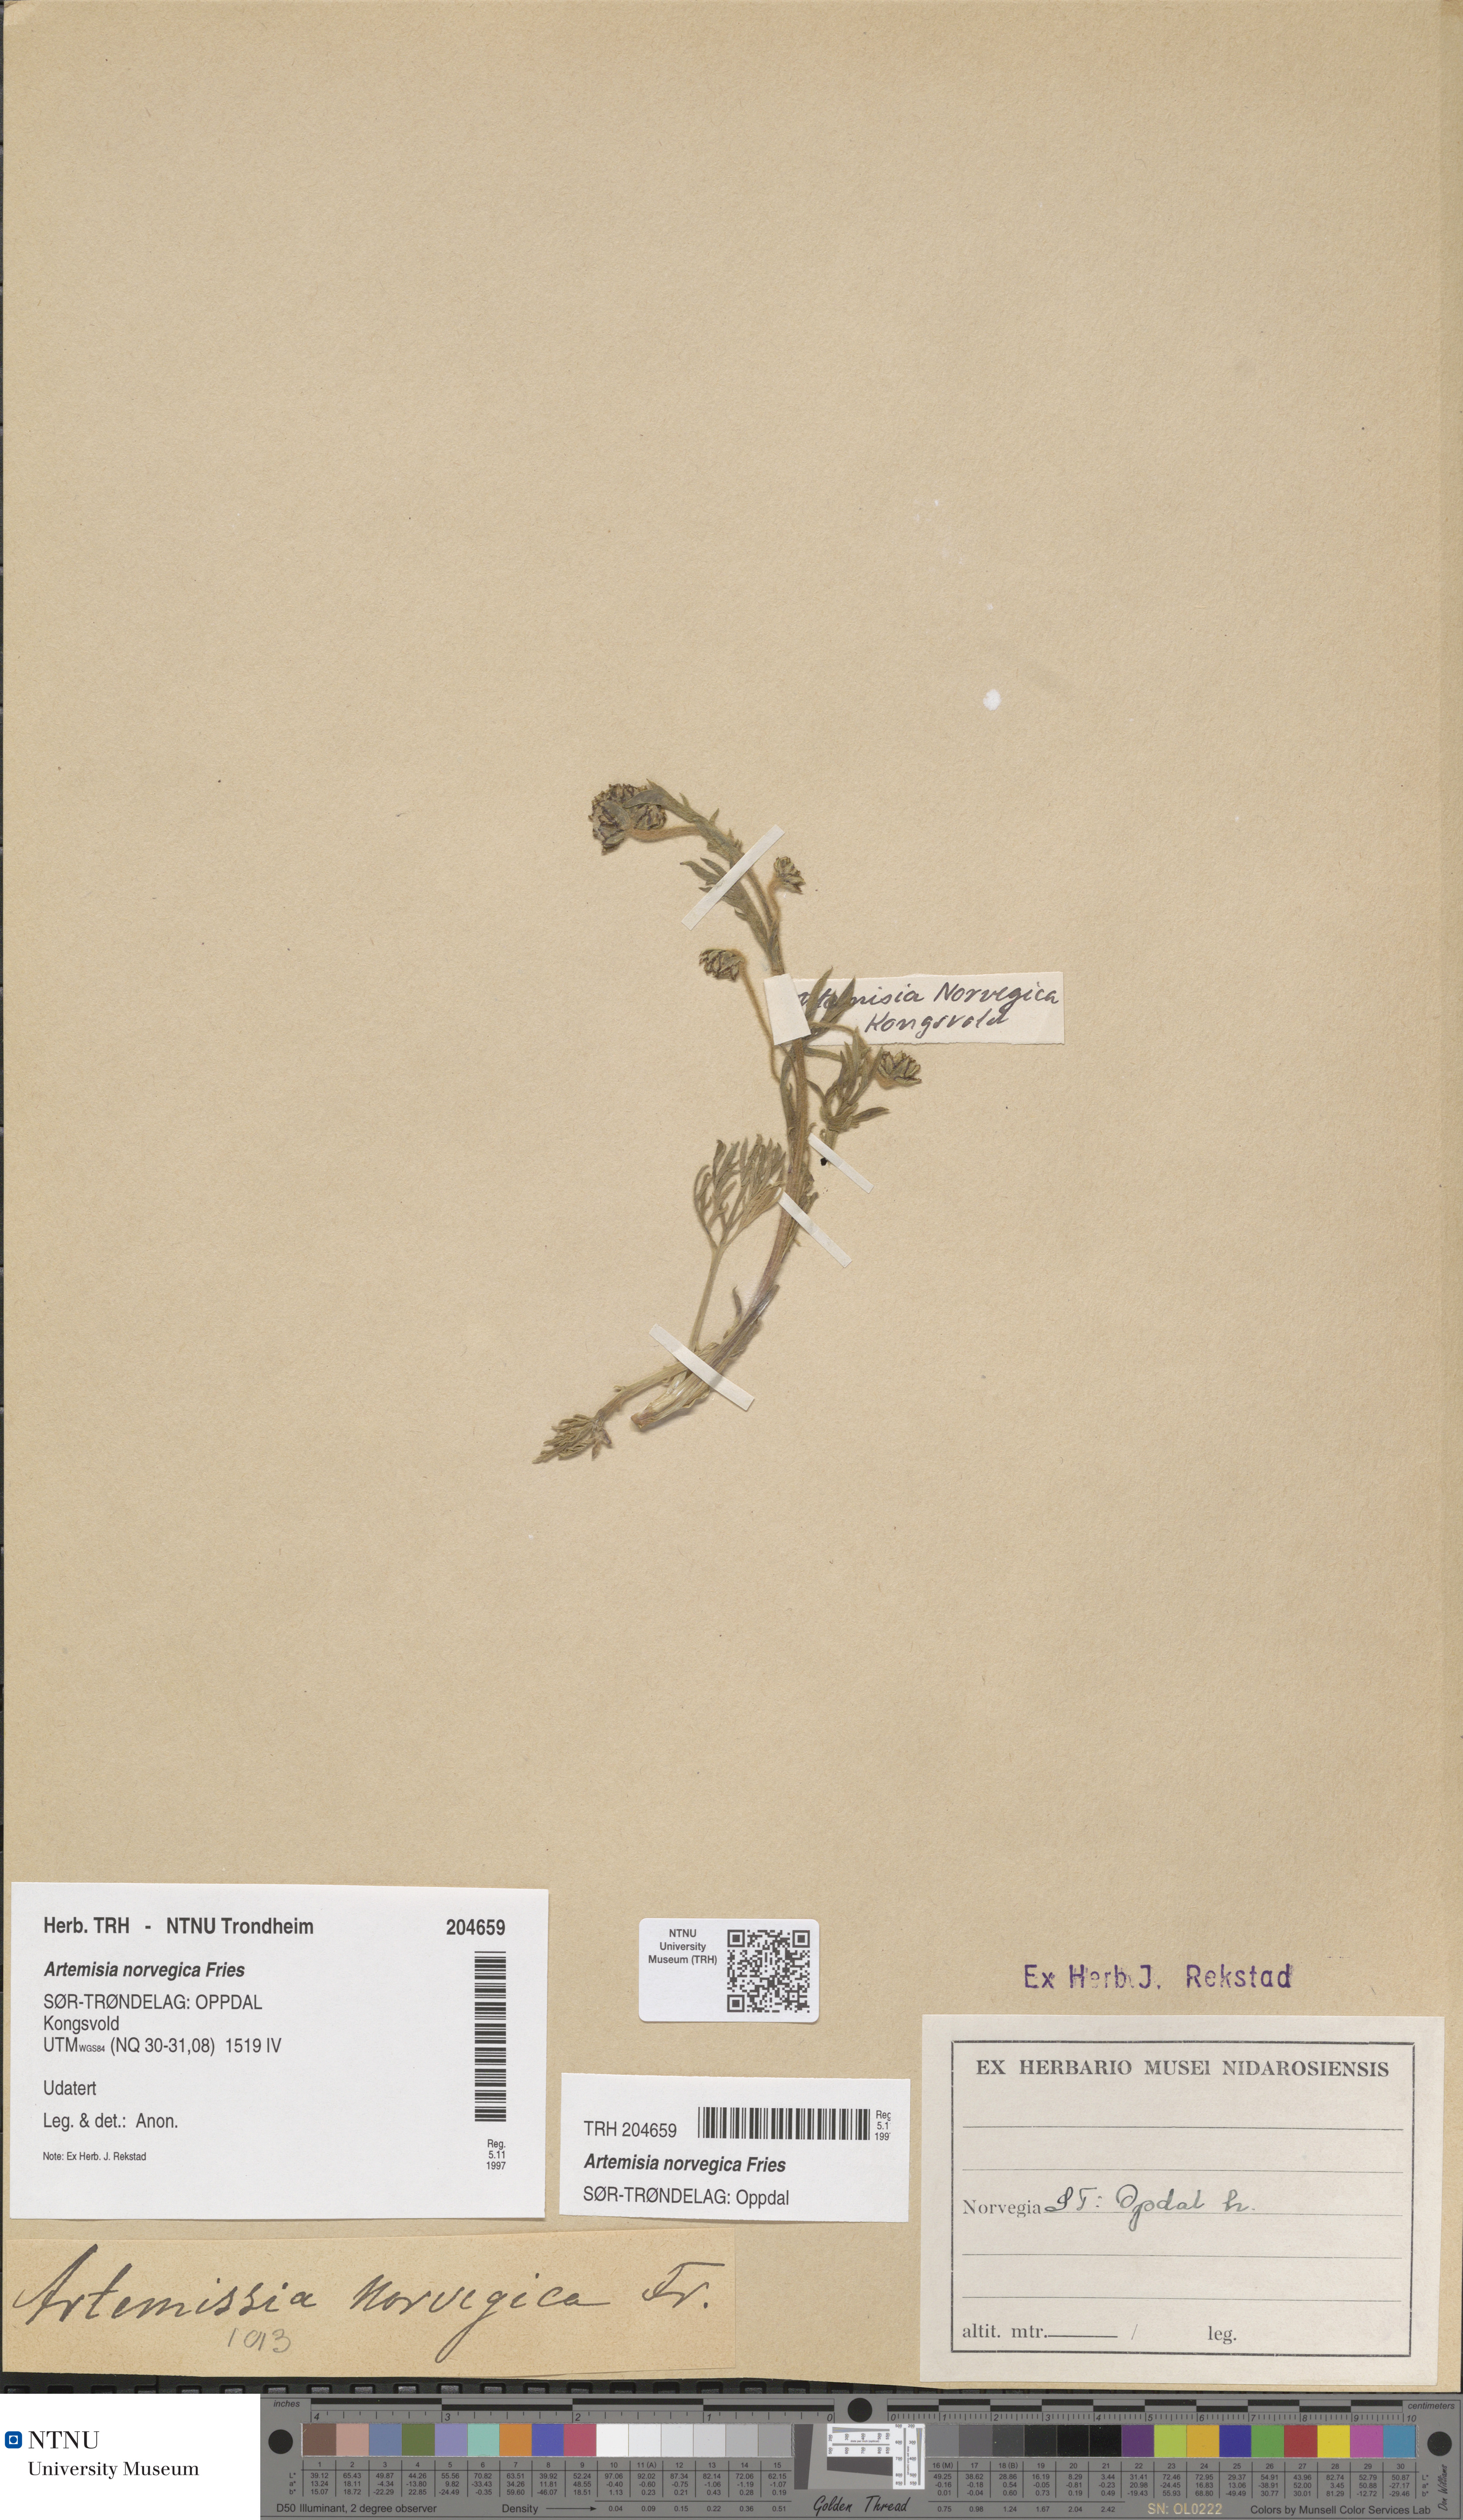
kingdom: Plantae
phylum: Tracheophyta
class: Magnoliopsida
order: Asterales
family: Asteraceae
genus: Artemisia
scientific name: Artemisia norvegica
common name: Norwegian mugwort
